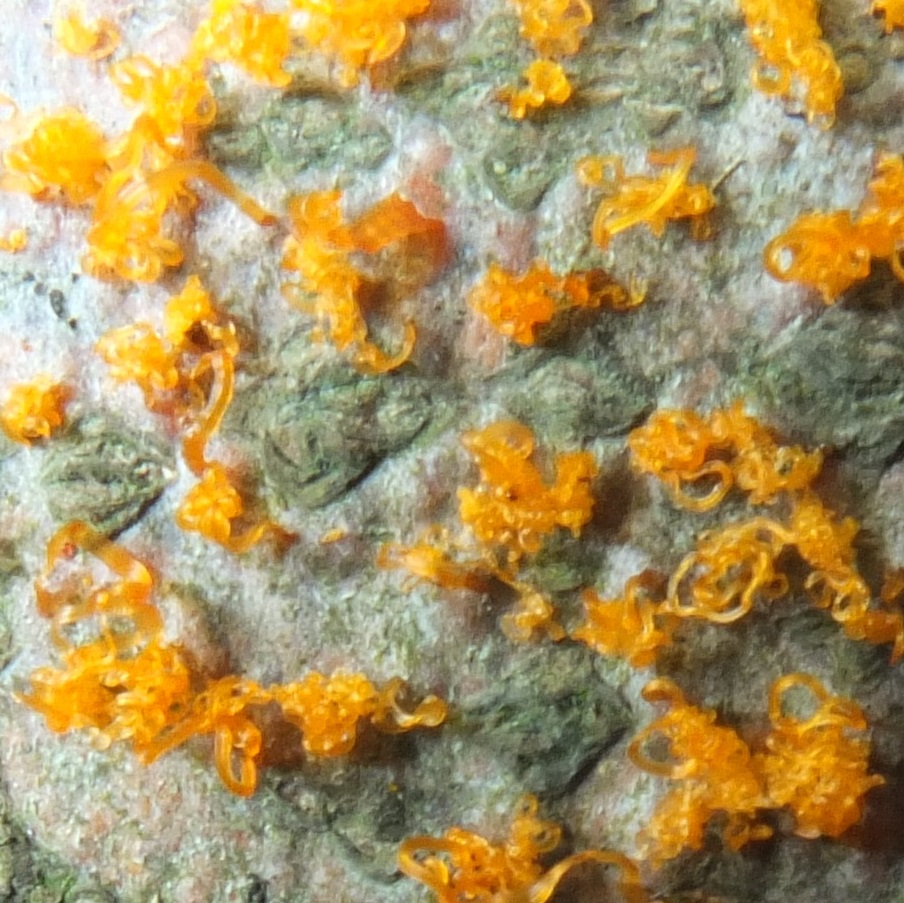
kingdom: Fungi
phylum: Ascomycota
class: Sordariomycetes
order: Xylariales
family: Diatrypaceae
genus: Eutypella
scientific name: Eutypella quaternata
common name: bøge-korsprik
